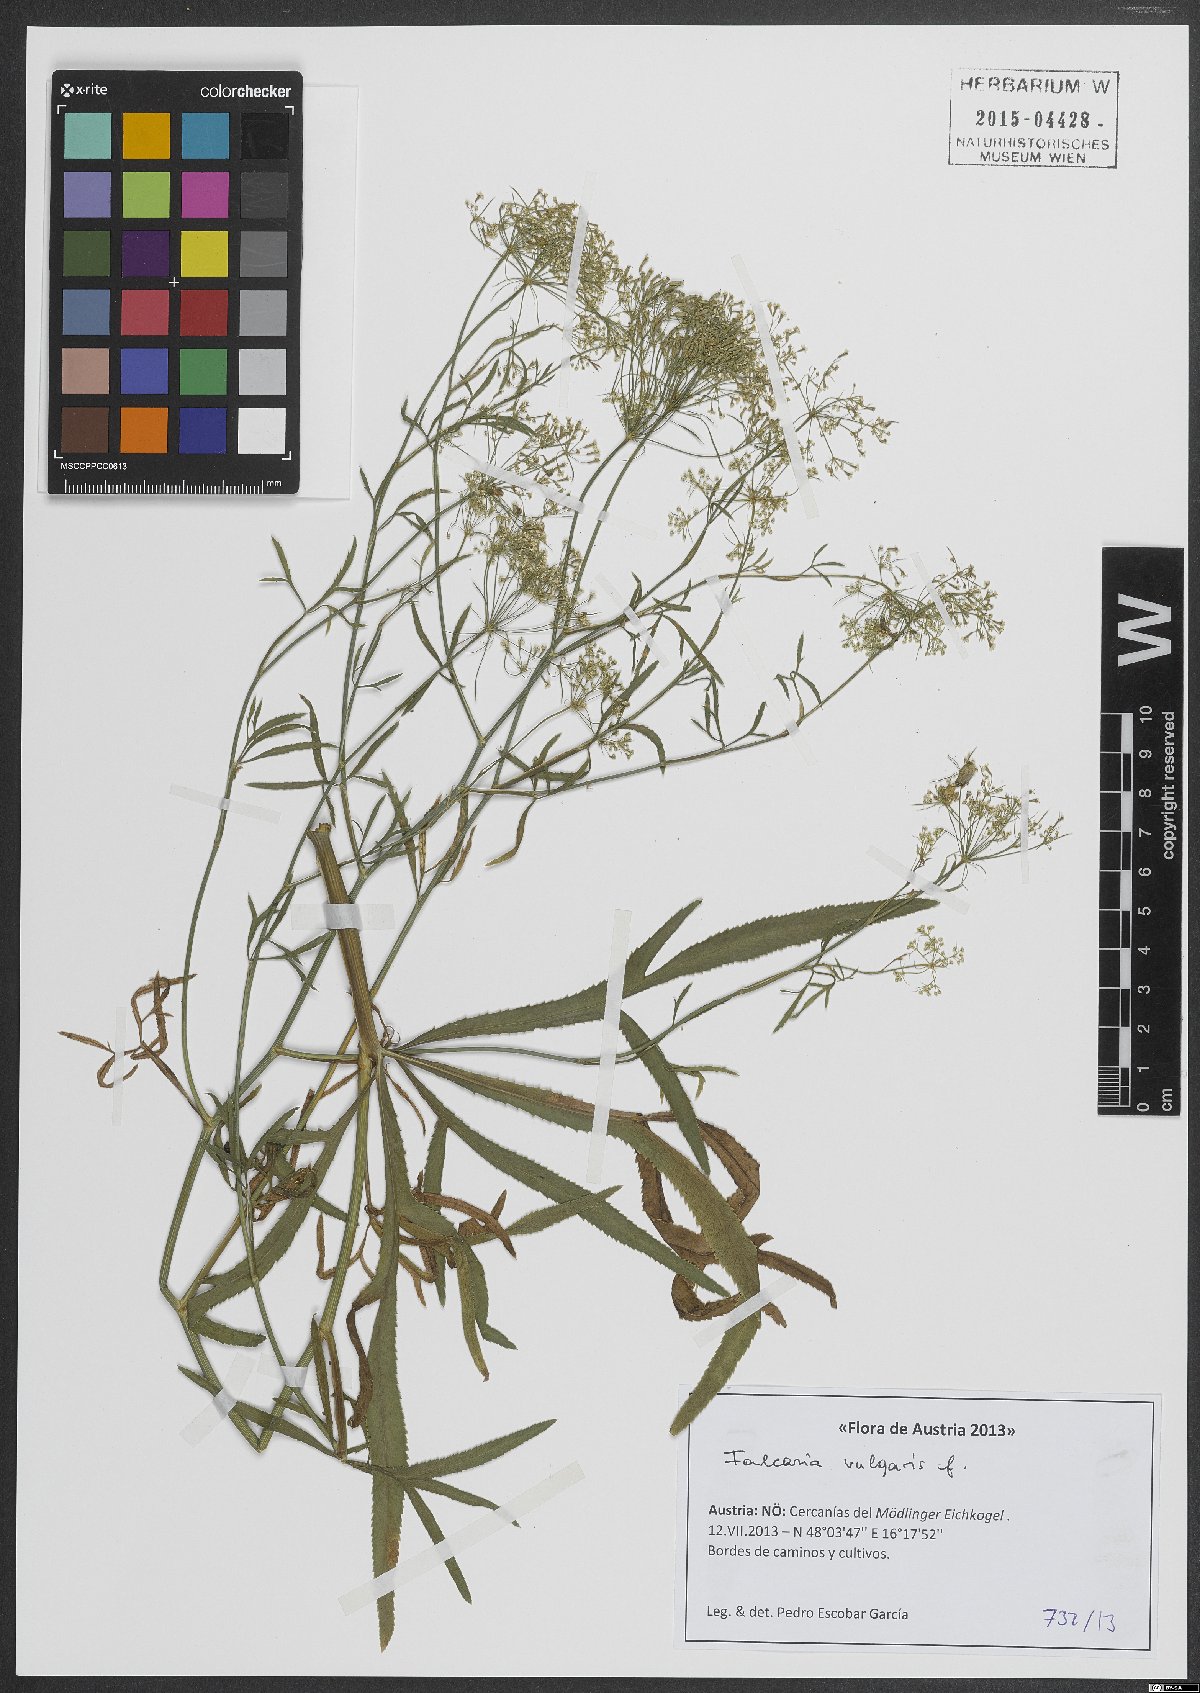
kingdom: Plantae
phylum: Tracheophyta
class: Magnoliopsida
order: Apiales
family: Apiaceae
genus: Falcaria
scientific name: Falcaria vulgaris
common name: Longleaf
